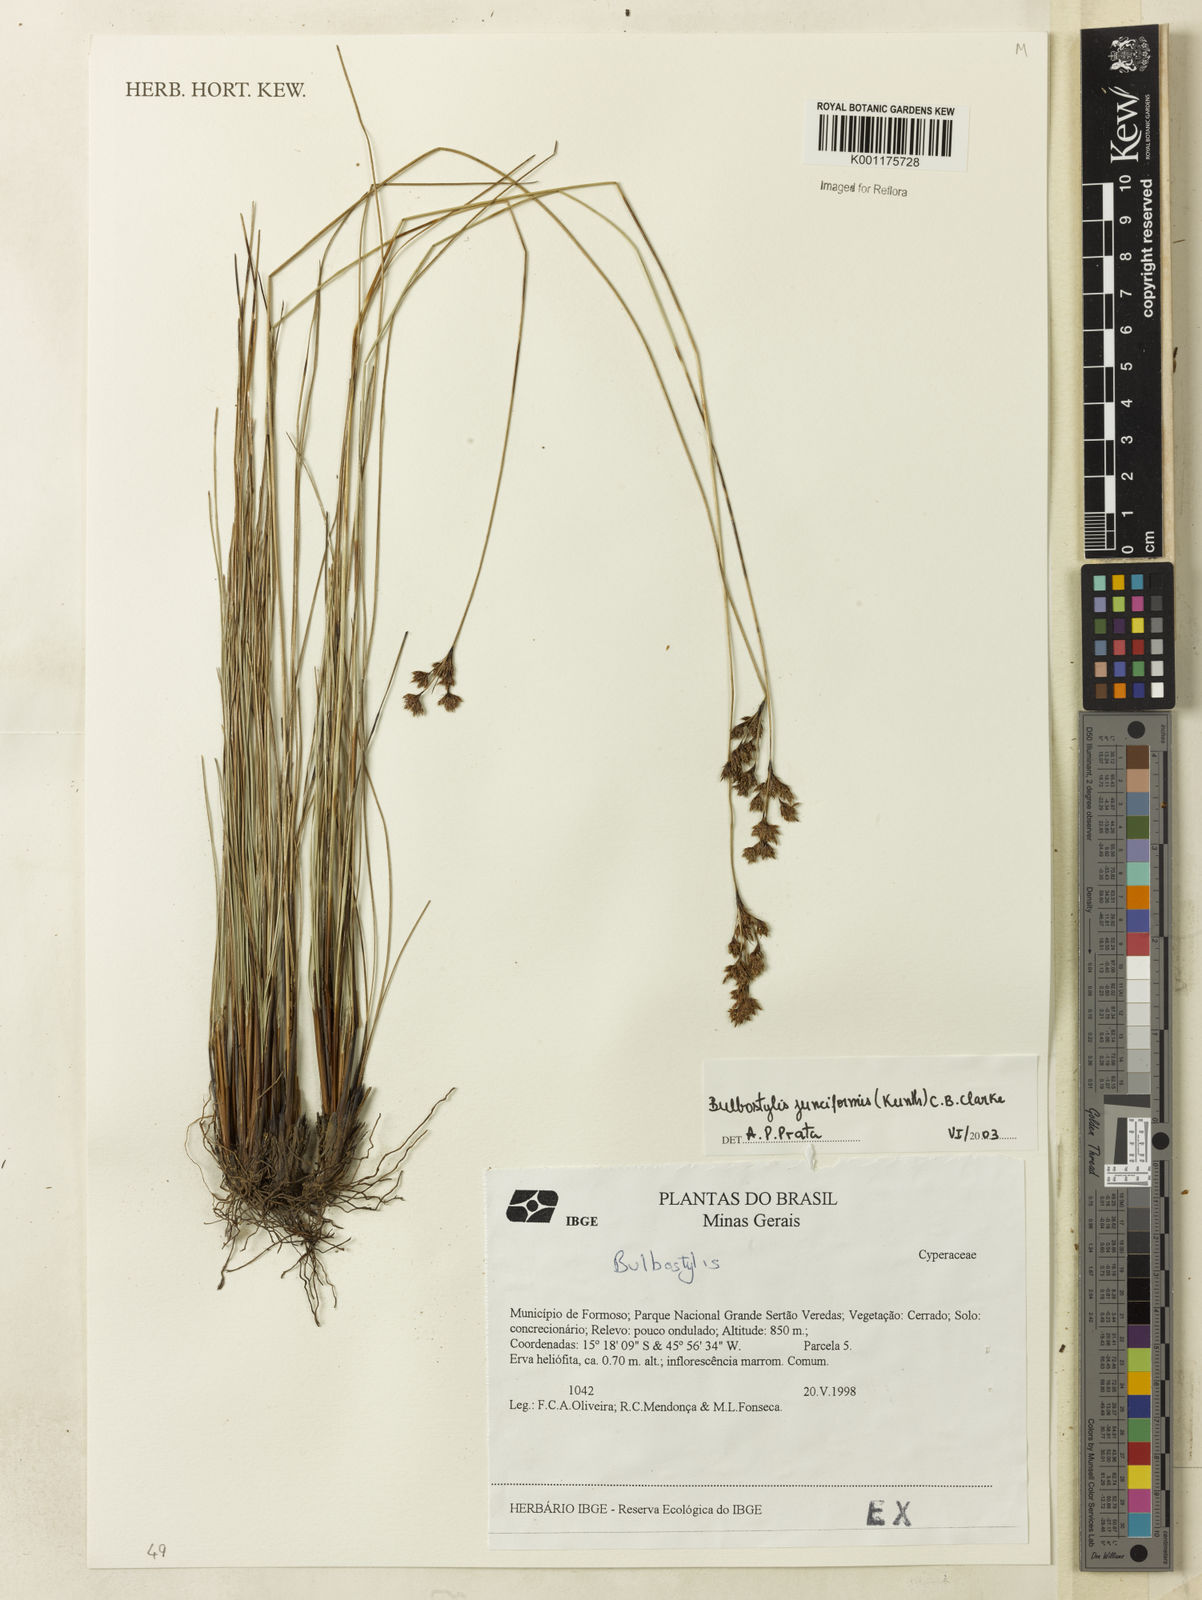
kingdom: Plantae
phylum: Tracheophyta
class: Liliopsida
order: Poales
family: Cyperaceae
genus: Bulbostylis
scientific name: Bulbostylis junciformis
